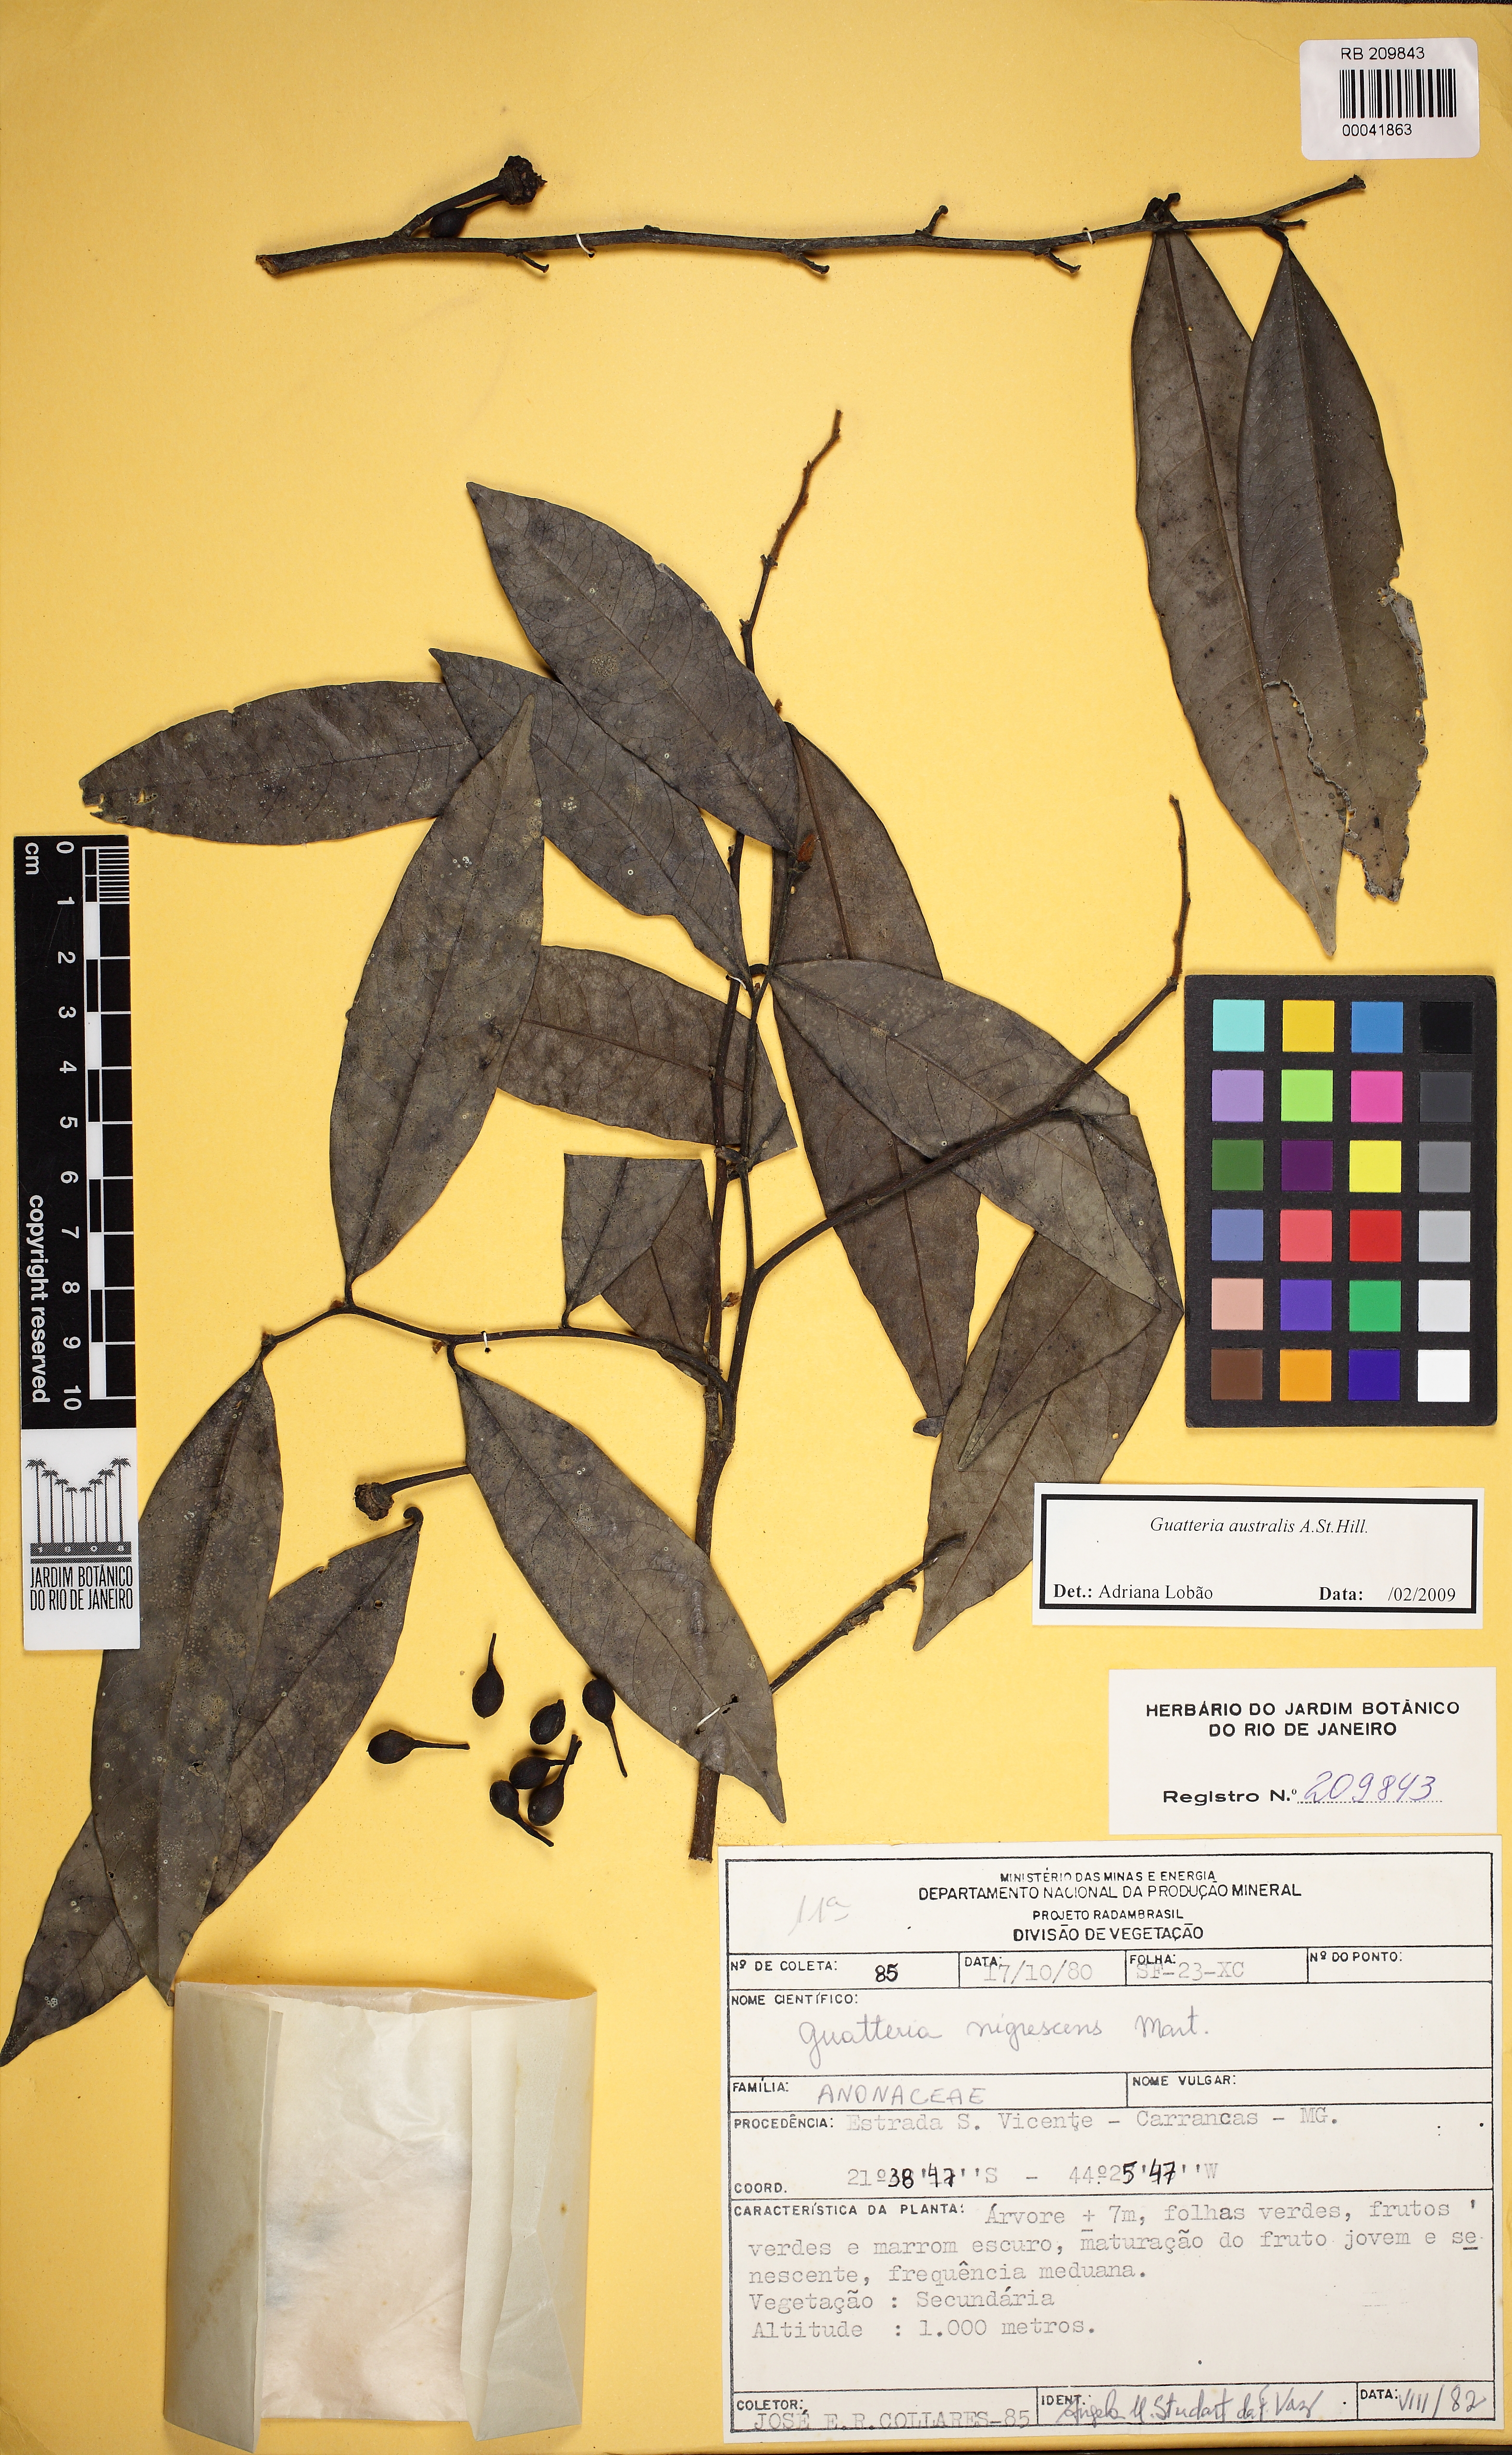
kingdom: Plantae
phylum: Tracheophyta
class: Magnoliopsida
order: Magnoliales
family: Annonaceae
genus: Guatteria
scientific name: Guatteria australis
